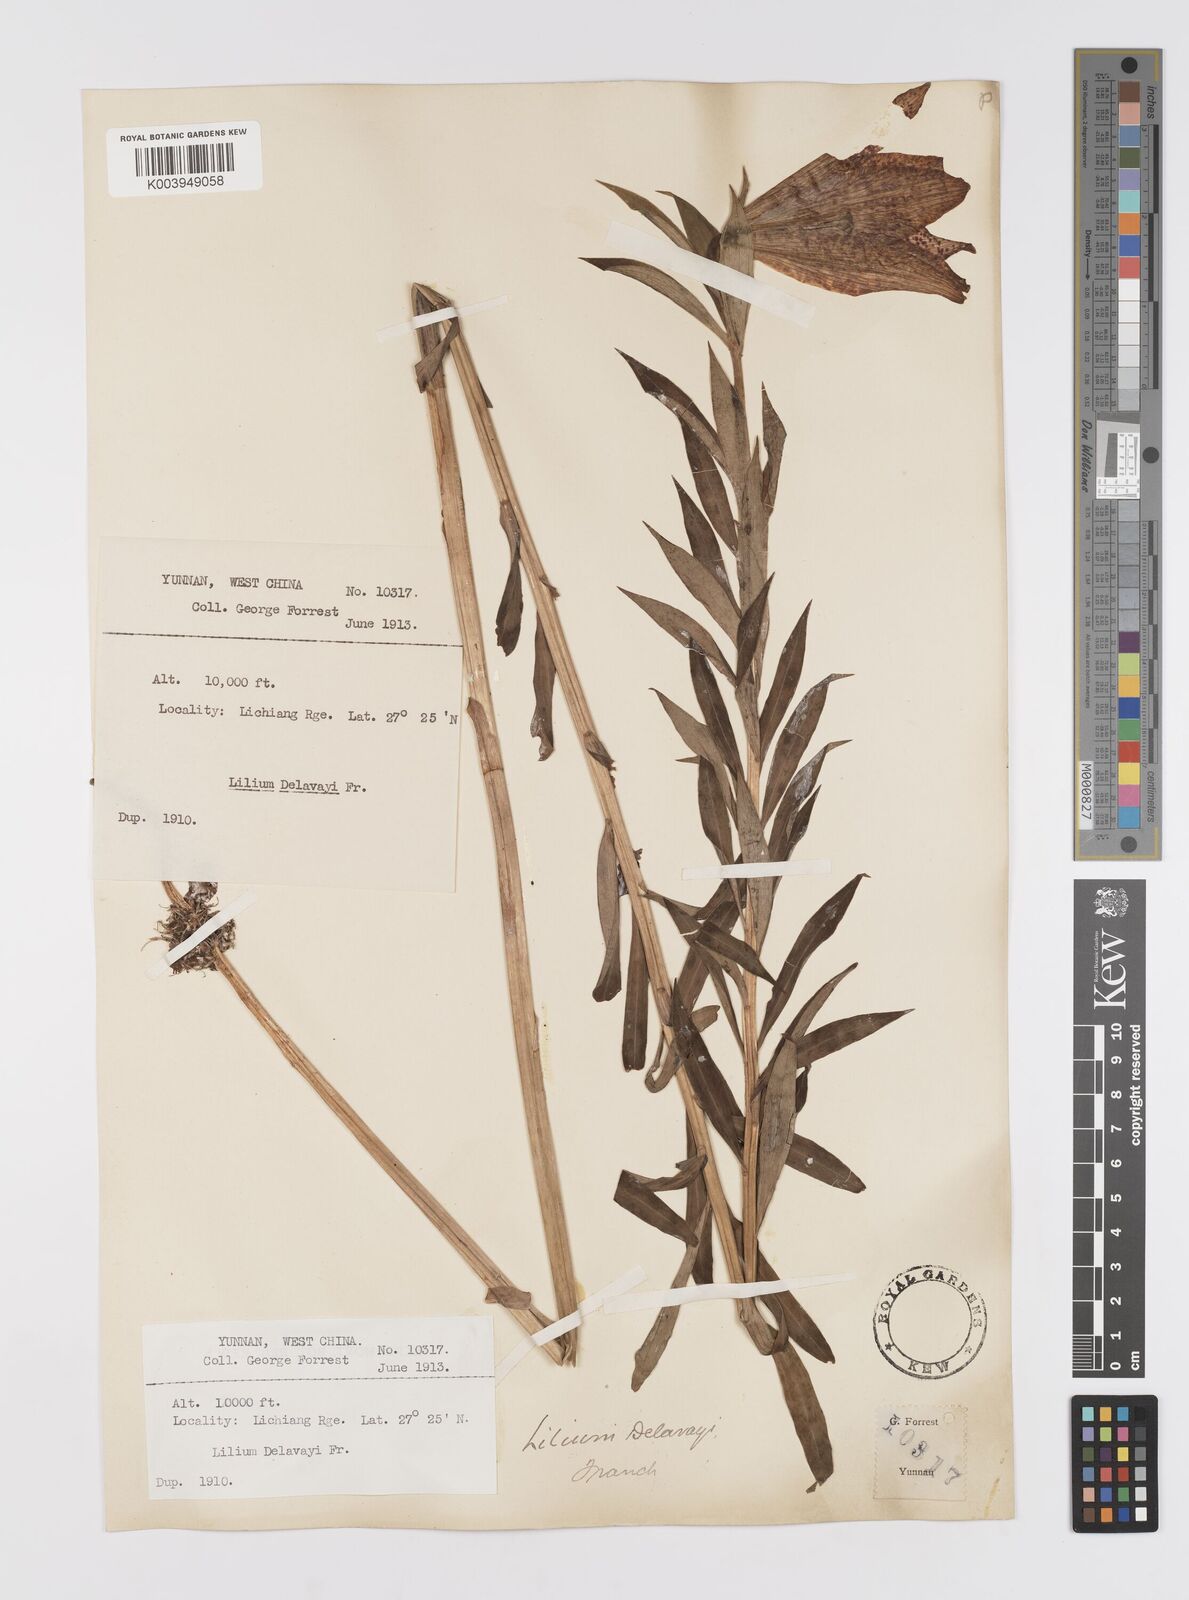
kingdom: Plantae
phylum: Tracheophyta
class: Liliopsida
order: Liliales
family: Liliaceae
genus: Lilium
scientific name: Lilium bakerianum
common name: Baker's lily
